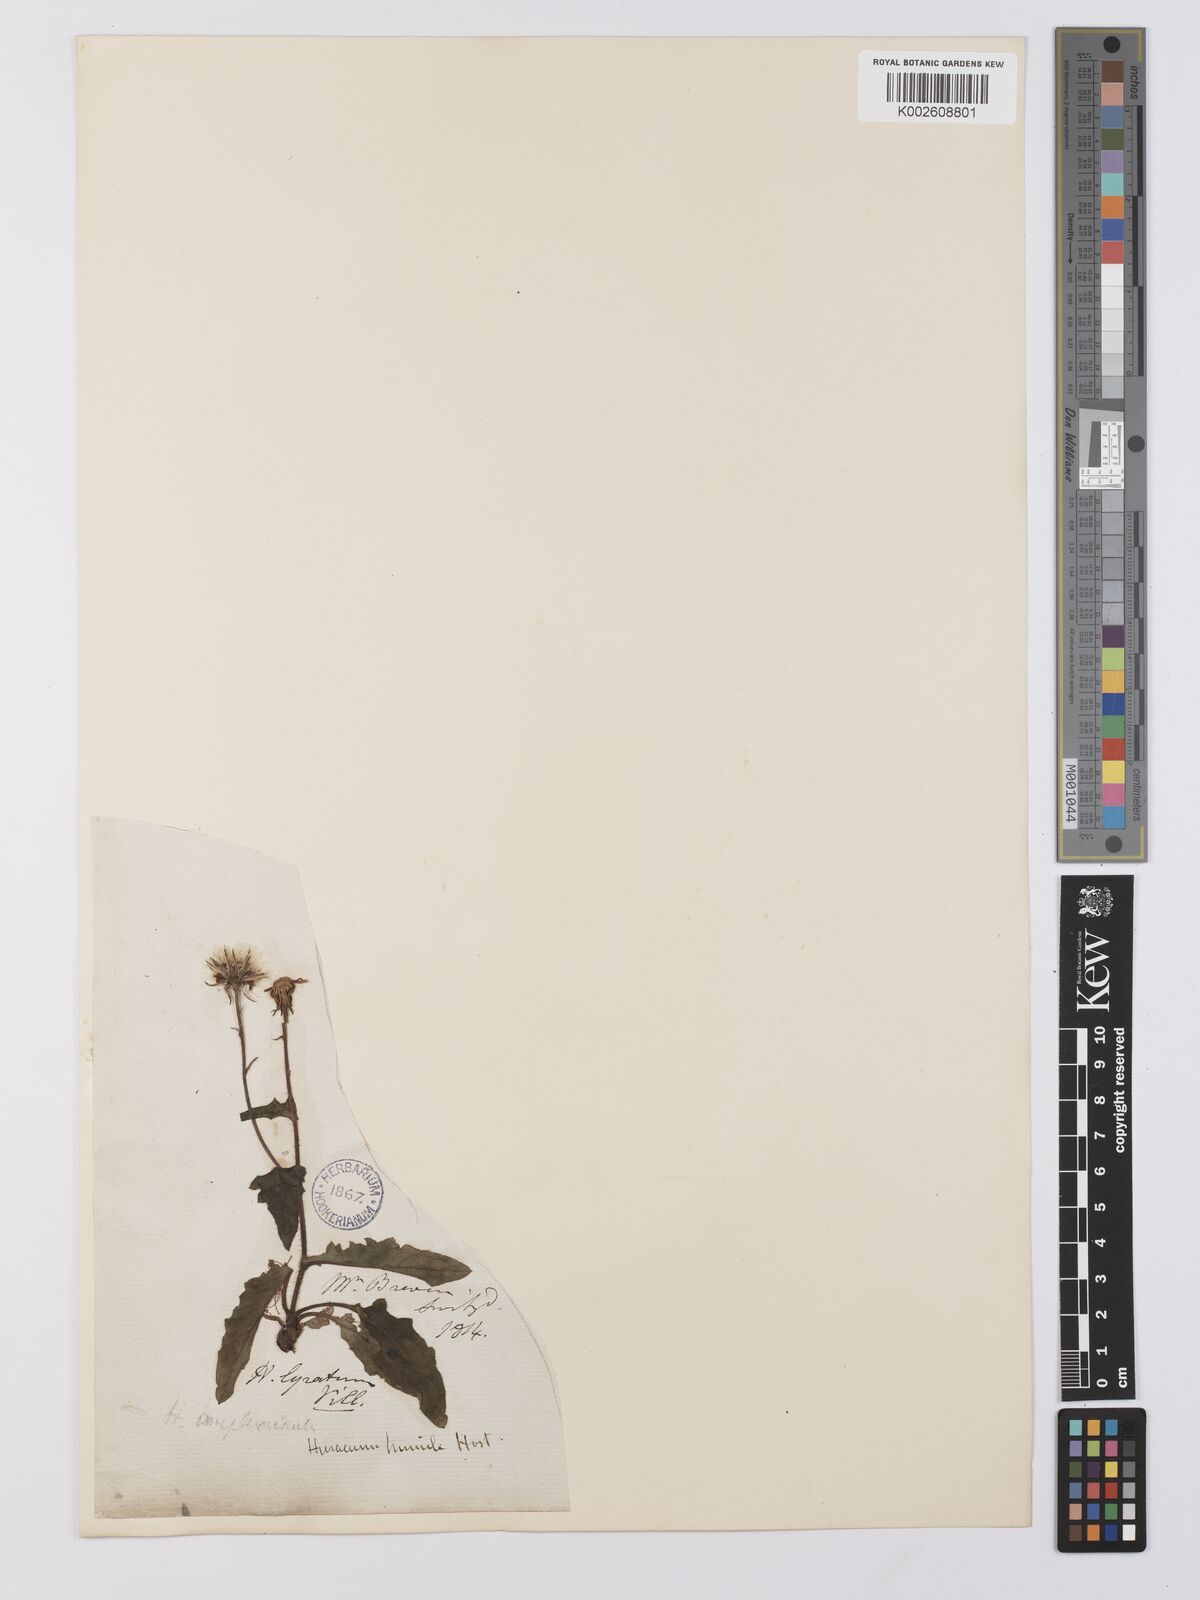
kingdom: Plantae
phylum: Tracheophyta
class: Magnoliopsida
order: Asterales
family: Asteraceae
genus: Hieracium
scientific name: Hieracium humile
